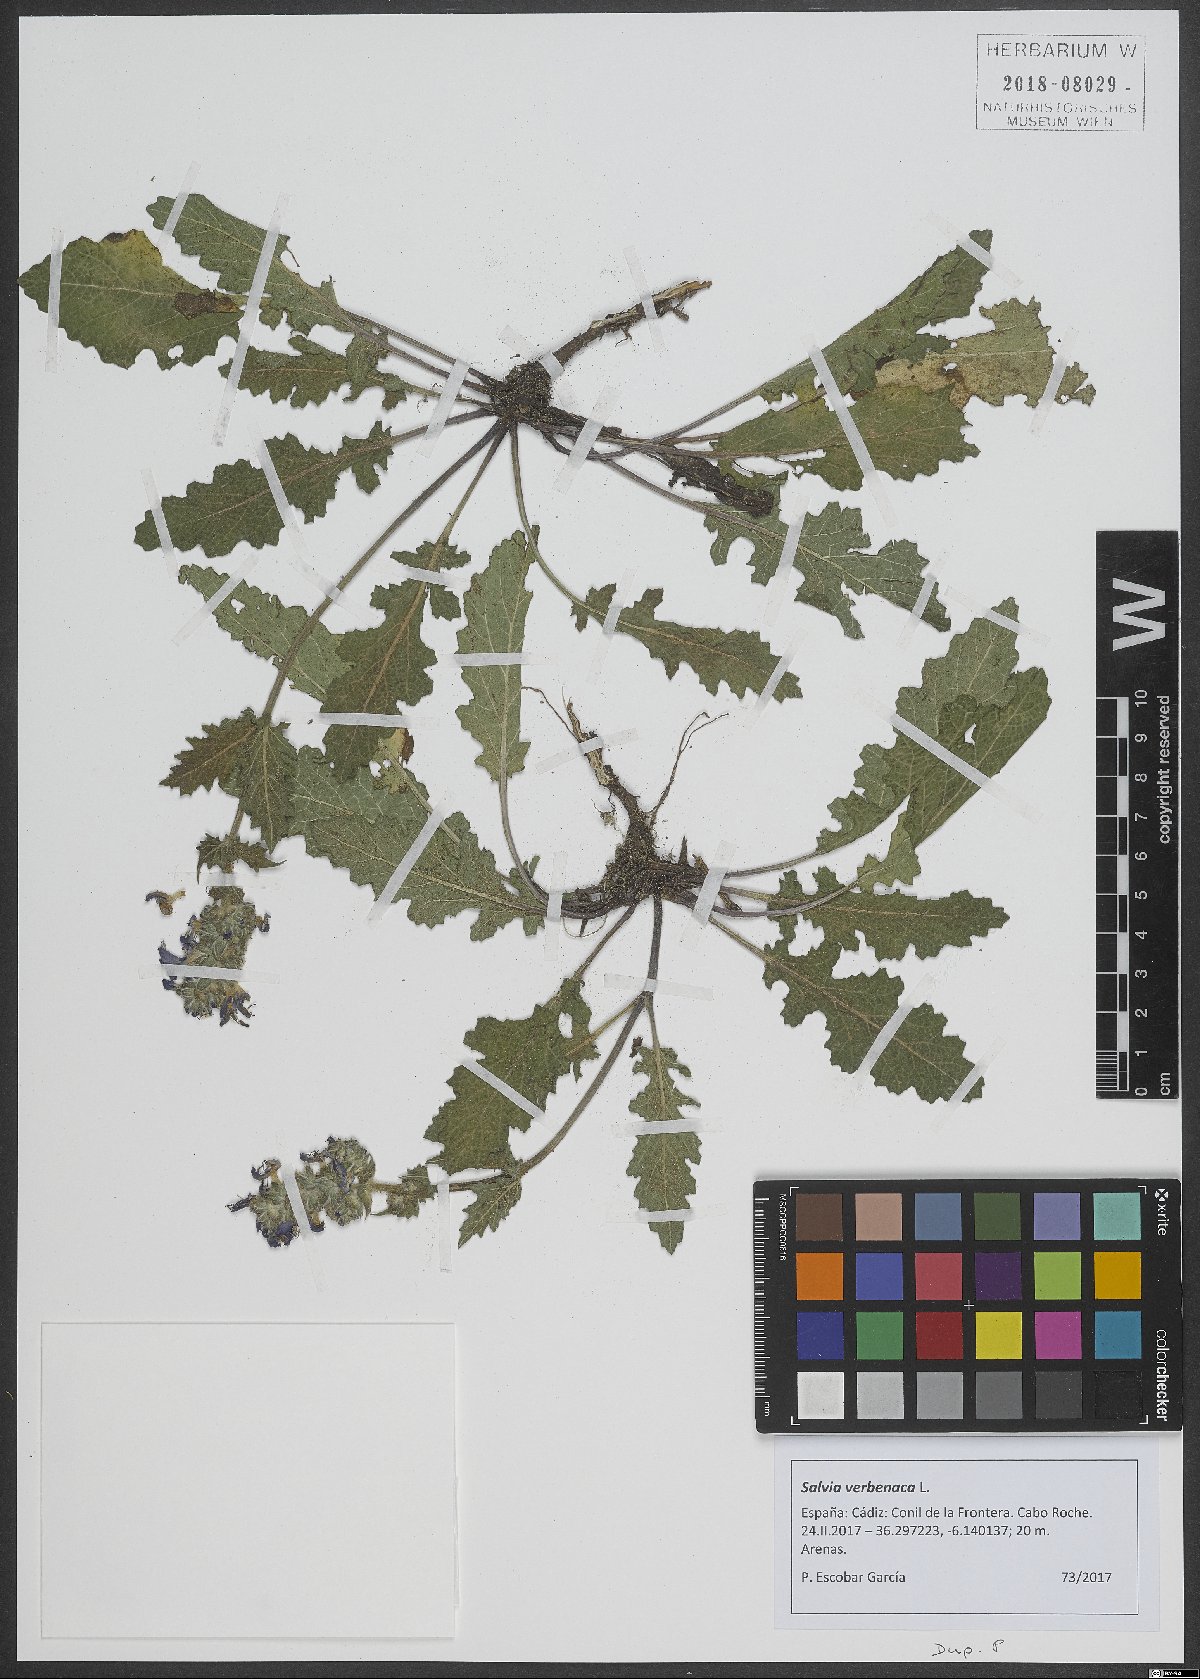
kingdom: Plantae
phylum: Tracheophyta
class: Magnoliopsida
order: Lamiales
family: Lamiaceae
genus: Salvia
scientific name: Salvia verbenaca
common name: Wild clary
